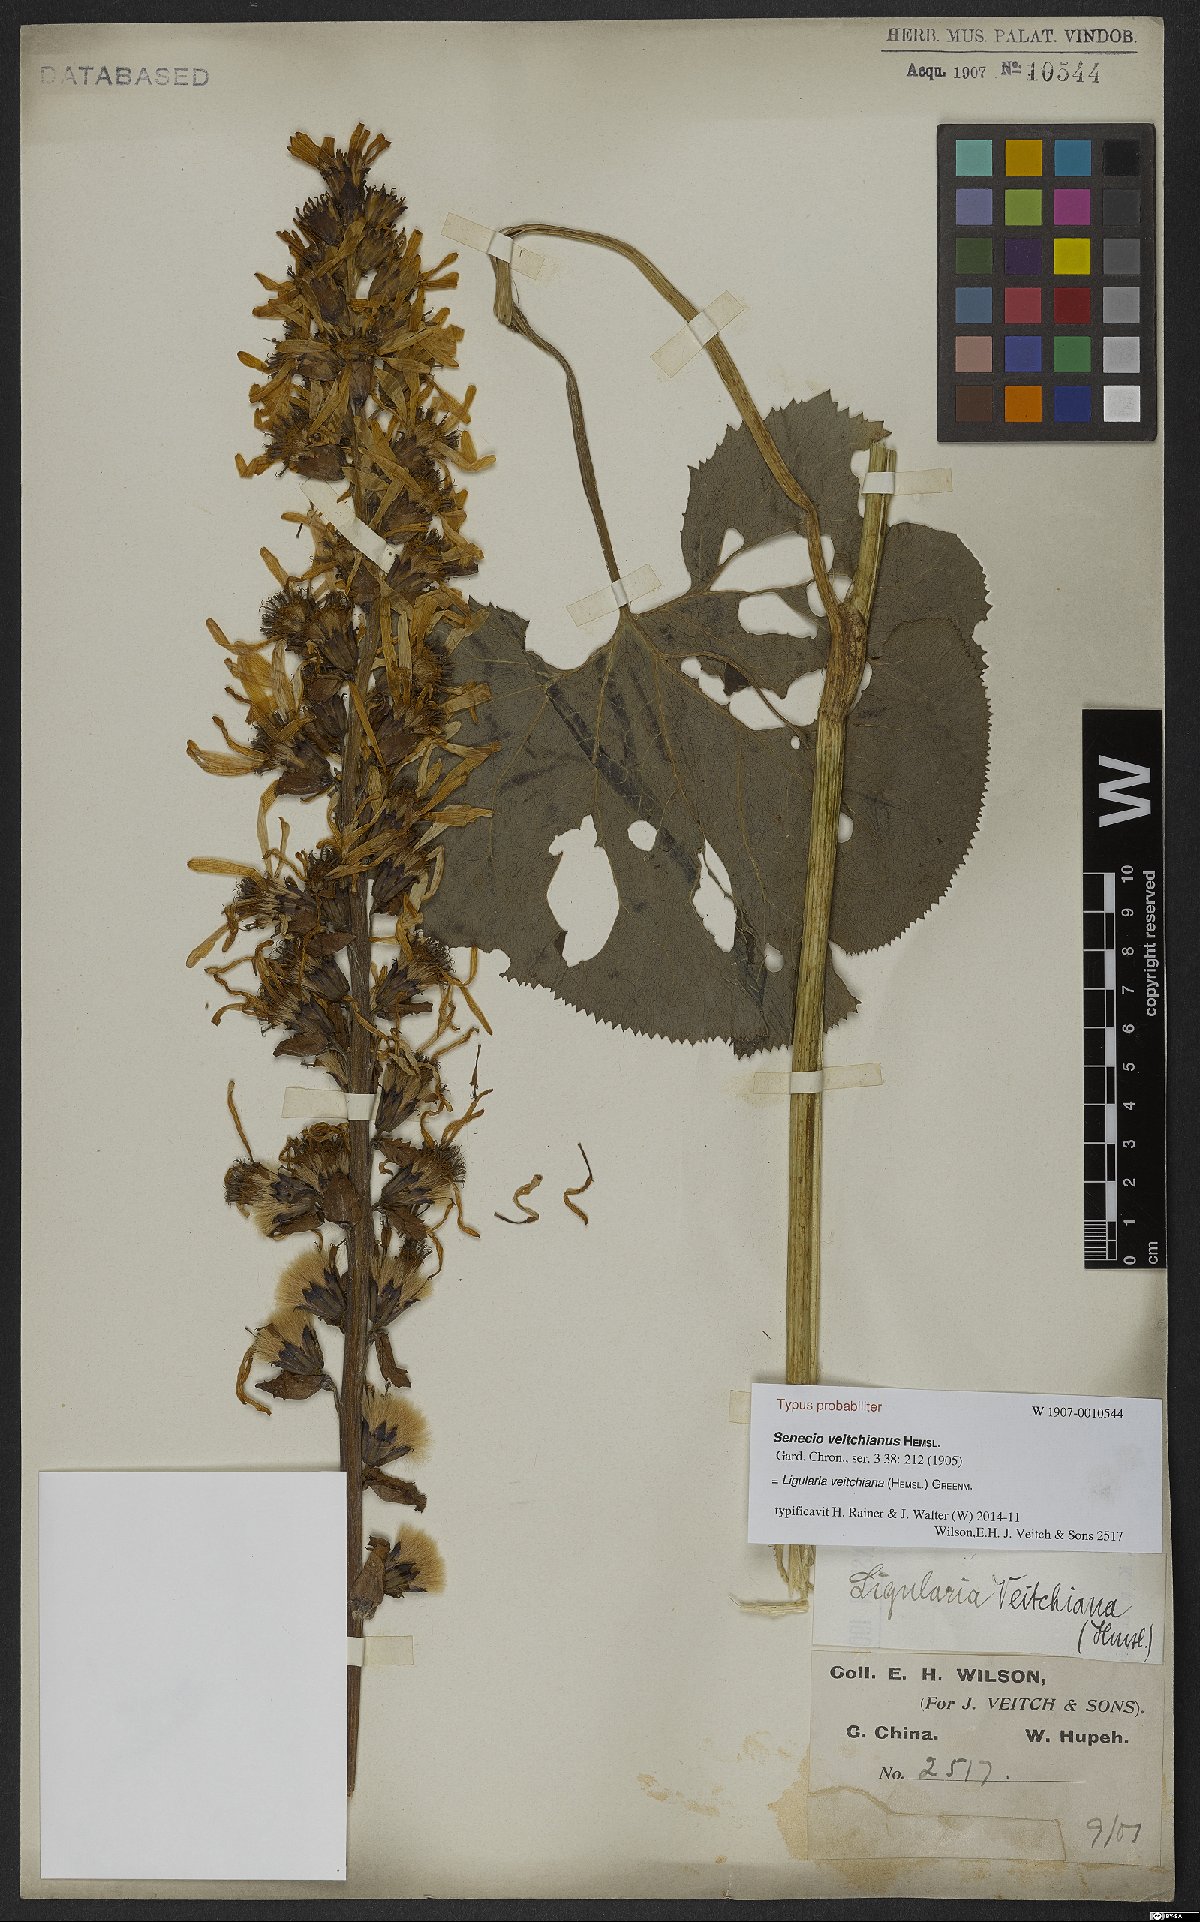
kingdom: Plantae
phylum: Tracheophyta
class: Magnoliopsida
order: Asterales
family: Asteraceae
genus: Ligularia
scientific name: Ligularia veitchiana
